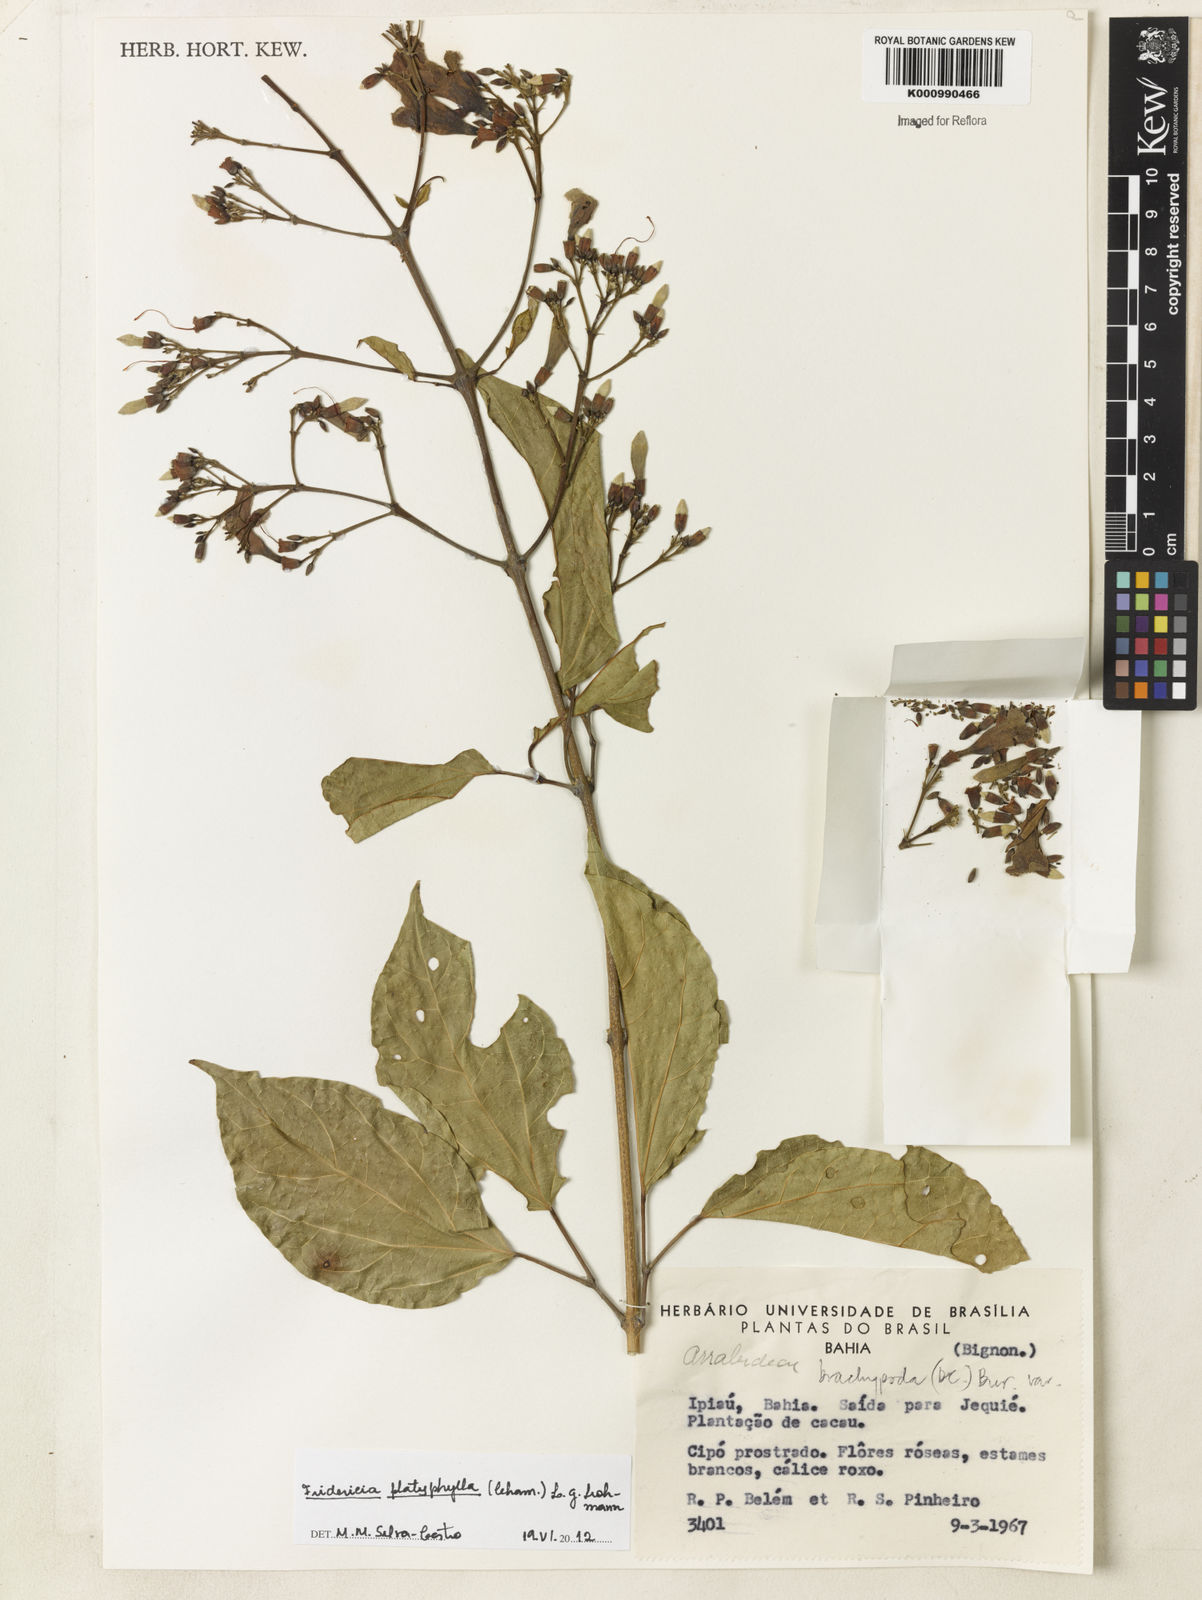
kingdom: Plantae
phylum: Tracheophyta
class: Magnoliopsida
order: Lamiales
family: Bignoniaceae
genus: Fridericia
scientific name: Fridericia platyphylla
